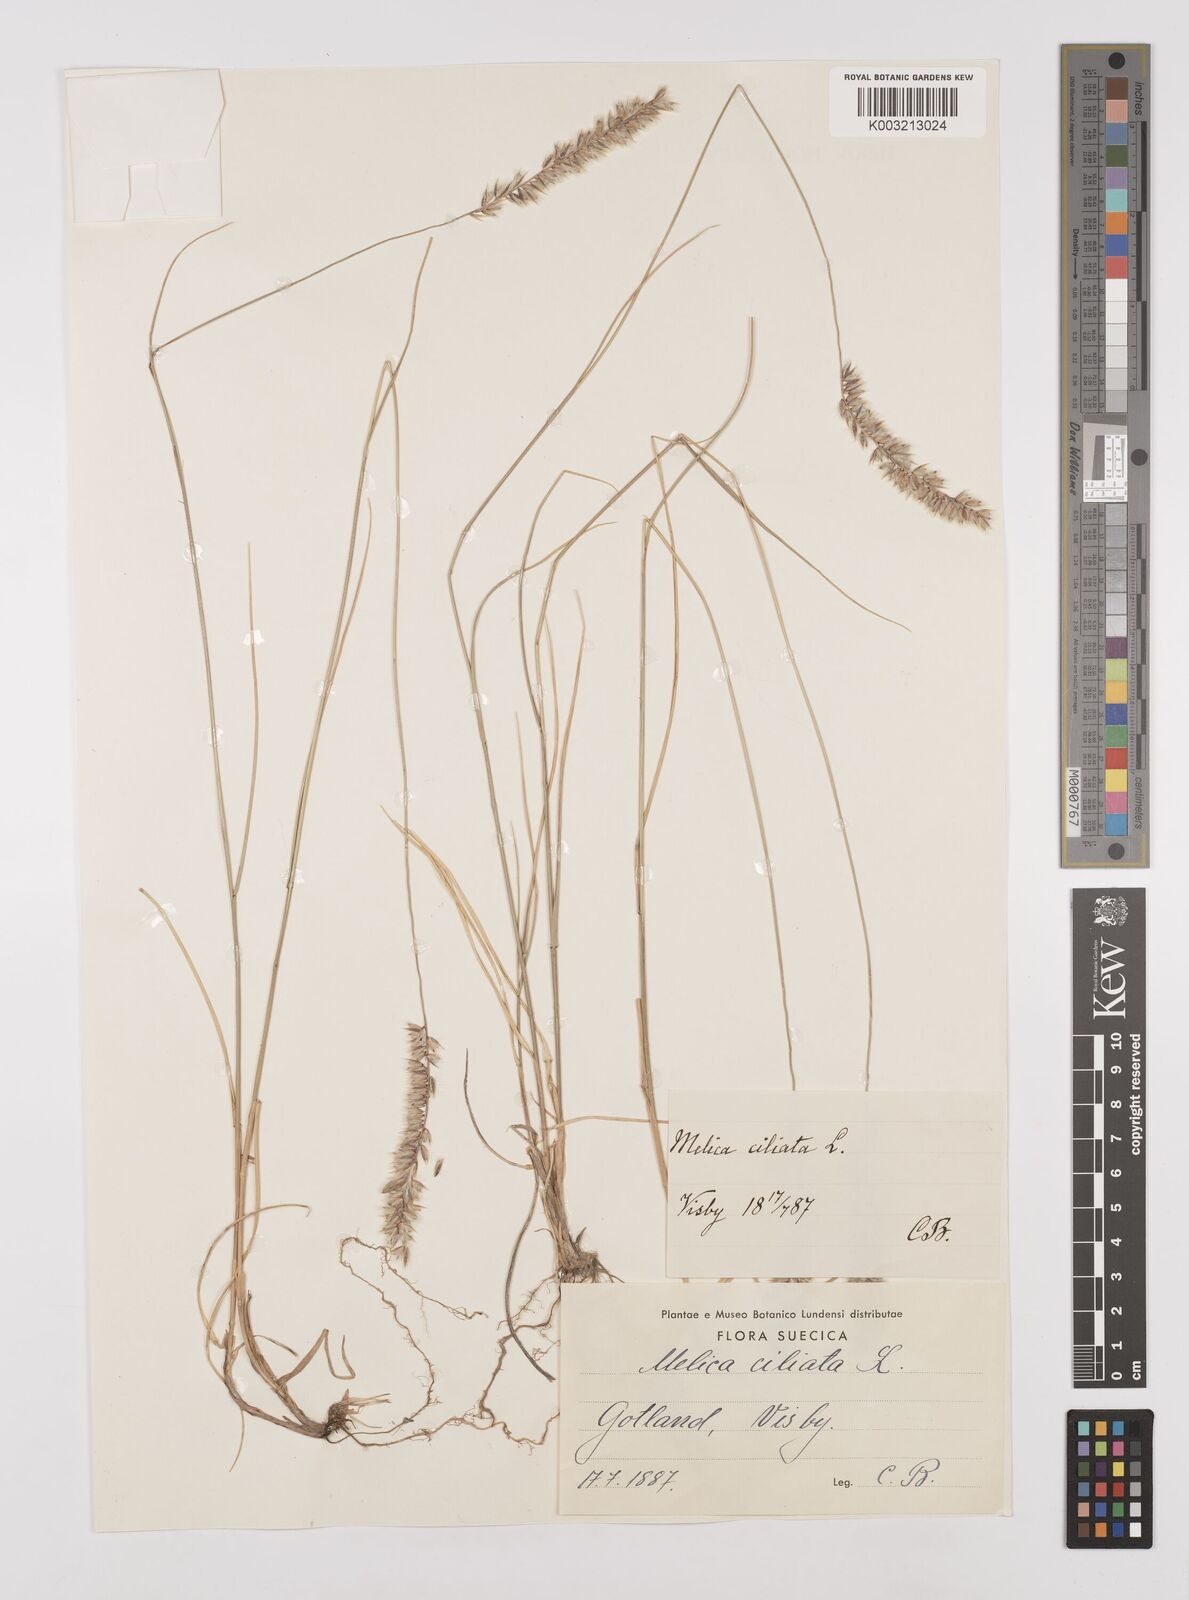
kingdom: Plantae
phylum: Tracheophyta
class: Liliopsida
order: Poales
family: Poaceae
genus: Melica
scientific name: Melica ciliata
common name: Hairy melicgrass
